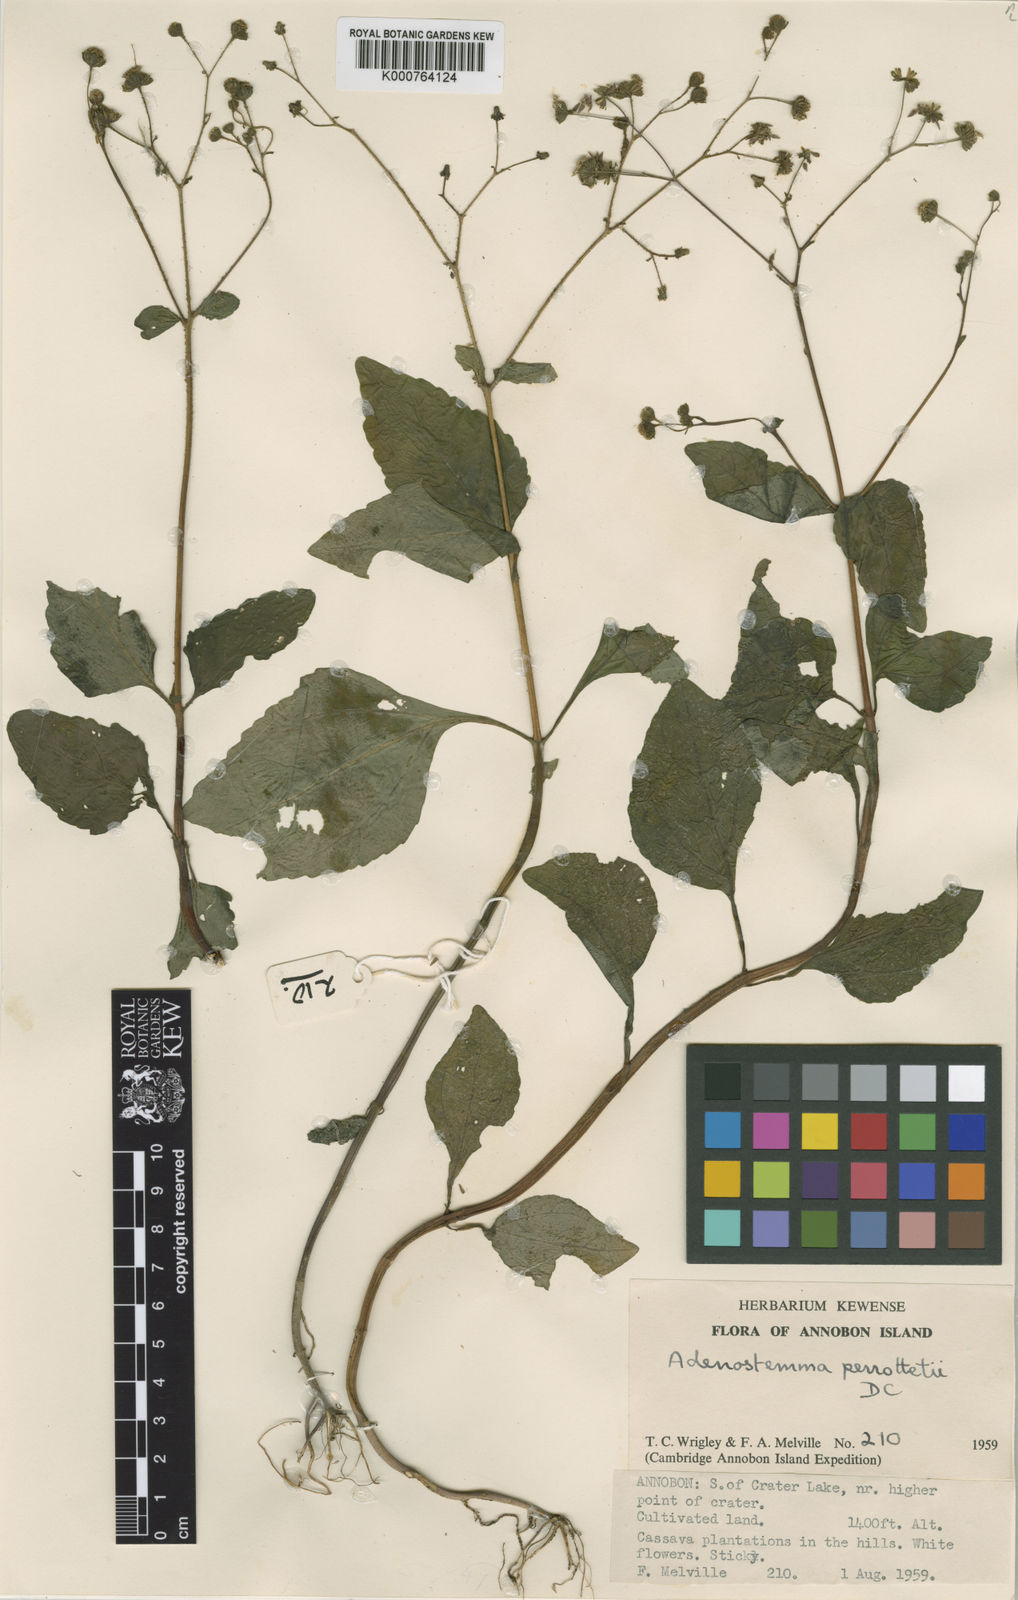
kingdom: Plantae
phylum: Tracheophyta
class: Magnoliopsida
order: Asterales
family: Asteraceae
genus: Adenostemma
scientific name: Adenostemma viscosum
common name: Dungweed
